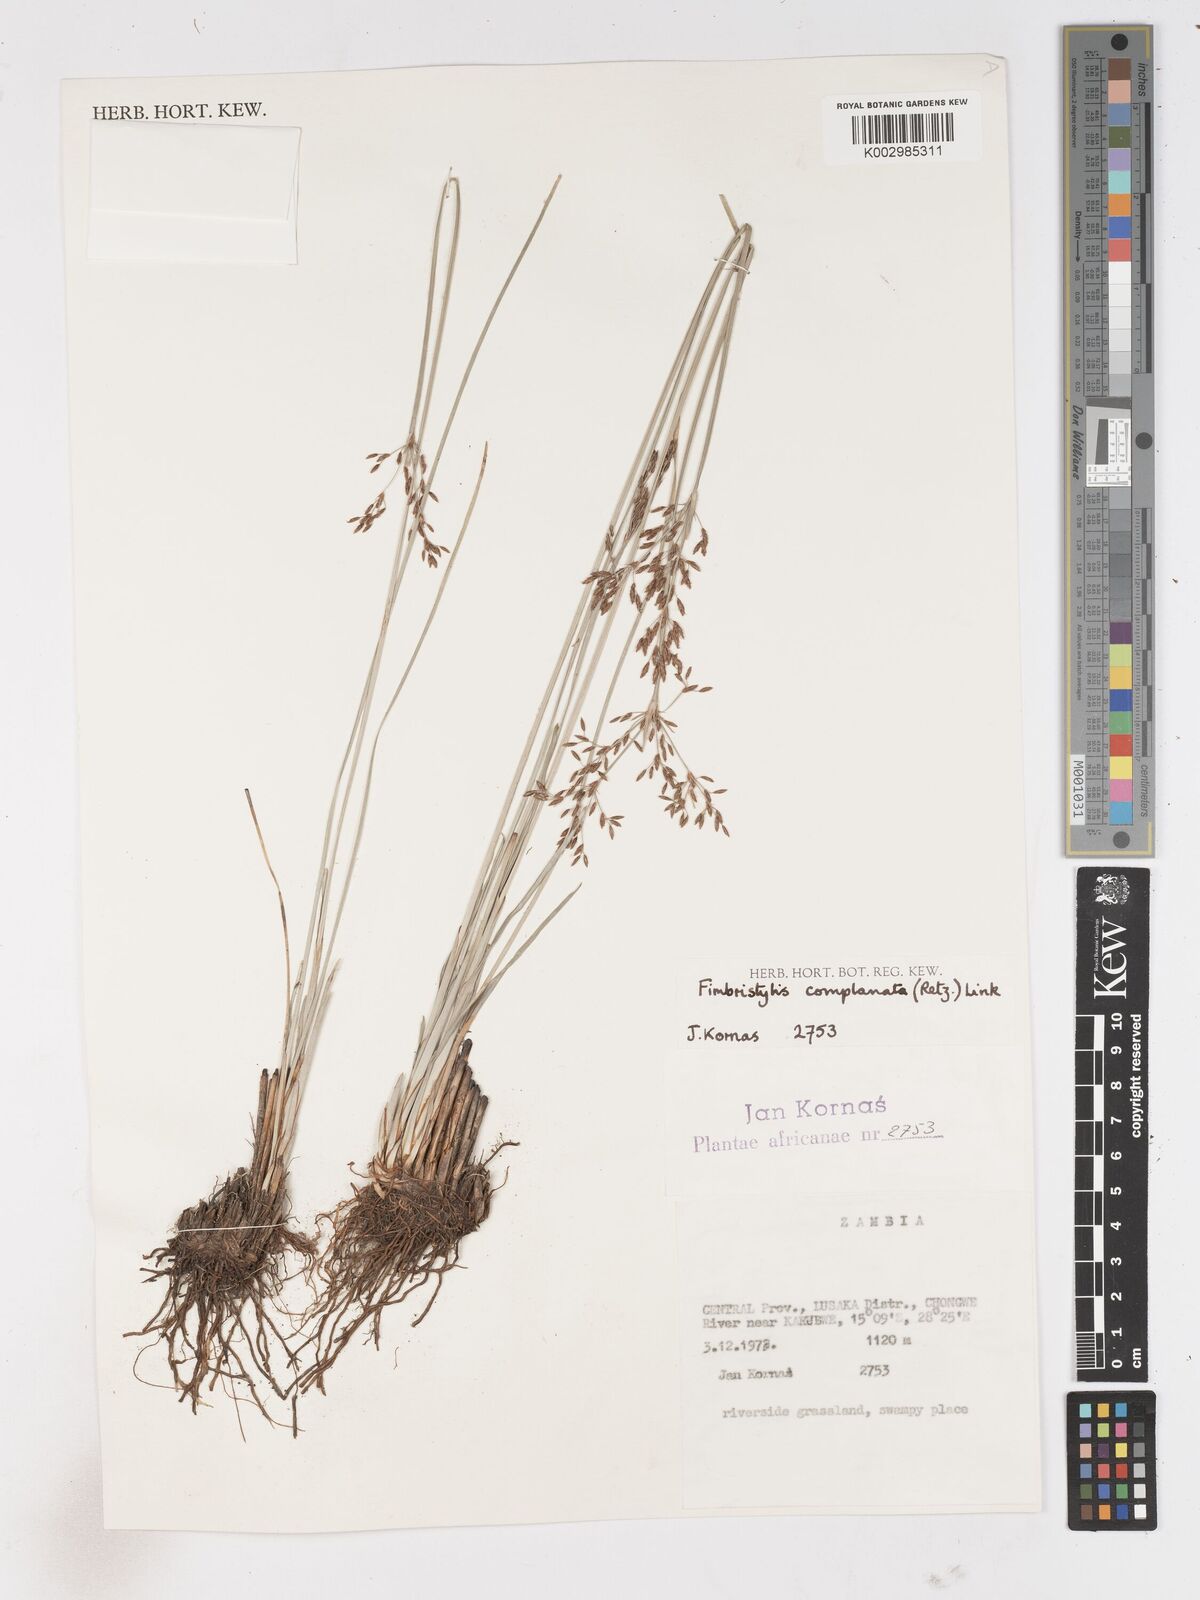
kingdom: Plantae
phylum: Tracheophyta
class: Liliopsida
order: Poales
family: Cyperaceae
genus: Fimbristylis
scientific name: Fimbristylis complanata
